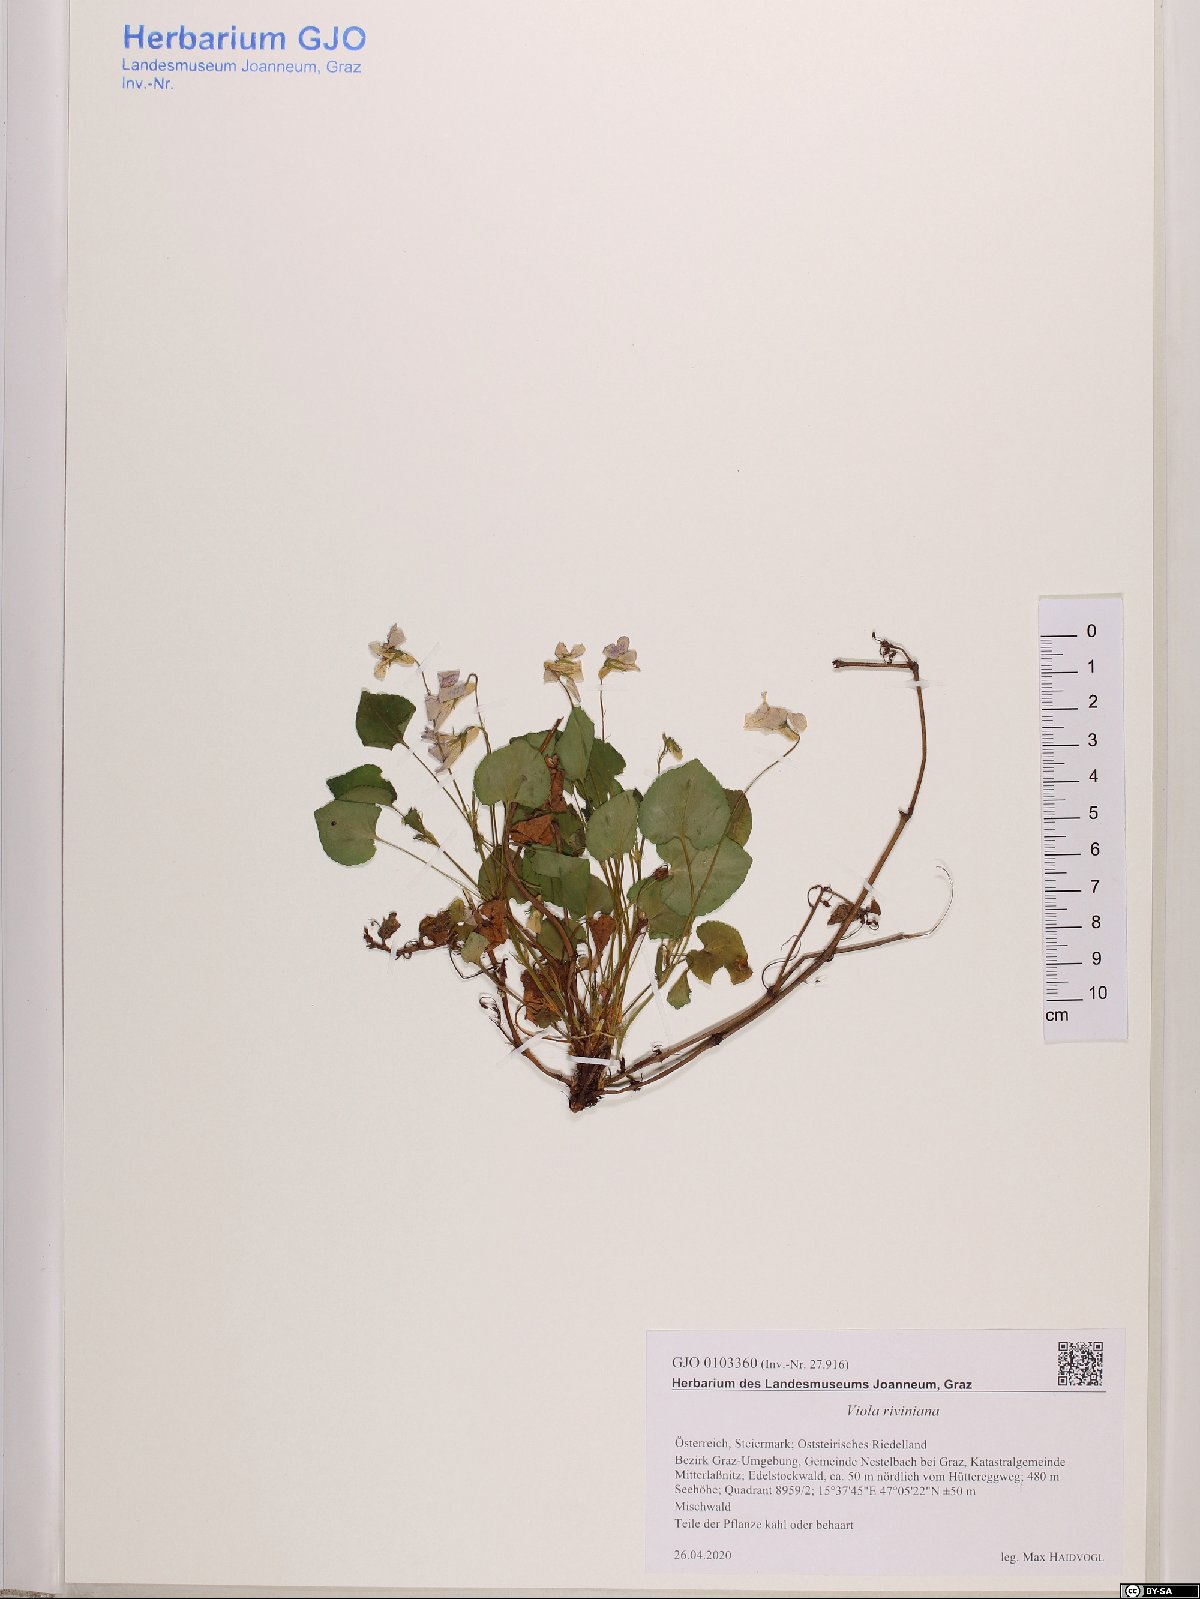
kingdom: Plantae
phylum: Tracheophyta
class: Magnoliopsida
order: Malpighiales
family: Violaceae
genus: Viola
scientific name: Viola riviniana
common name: Common dog-violet
